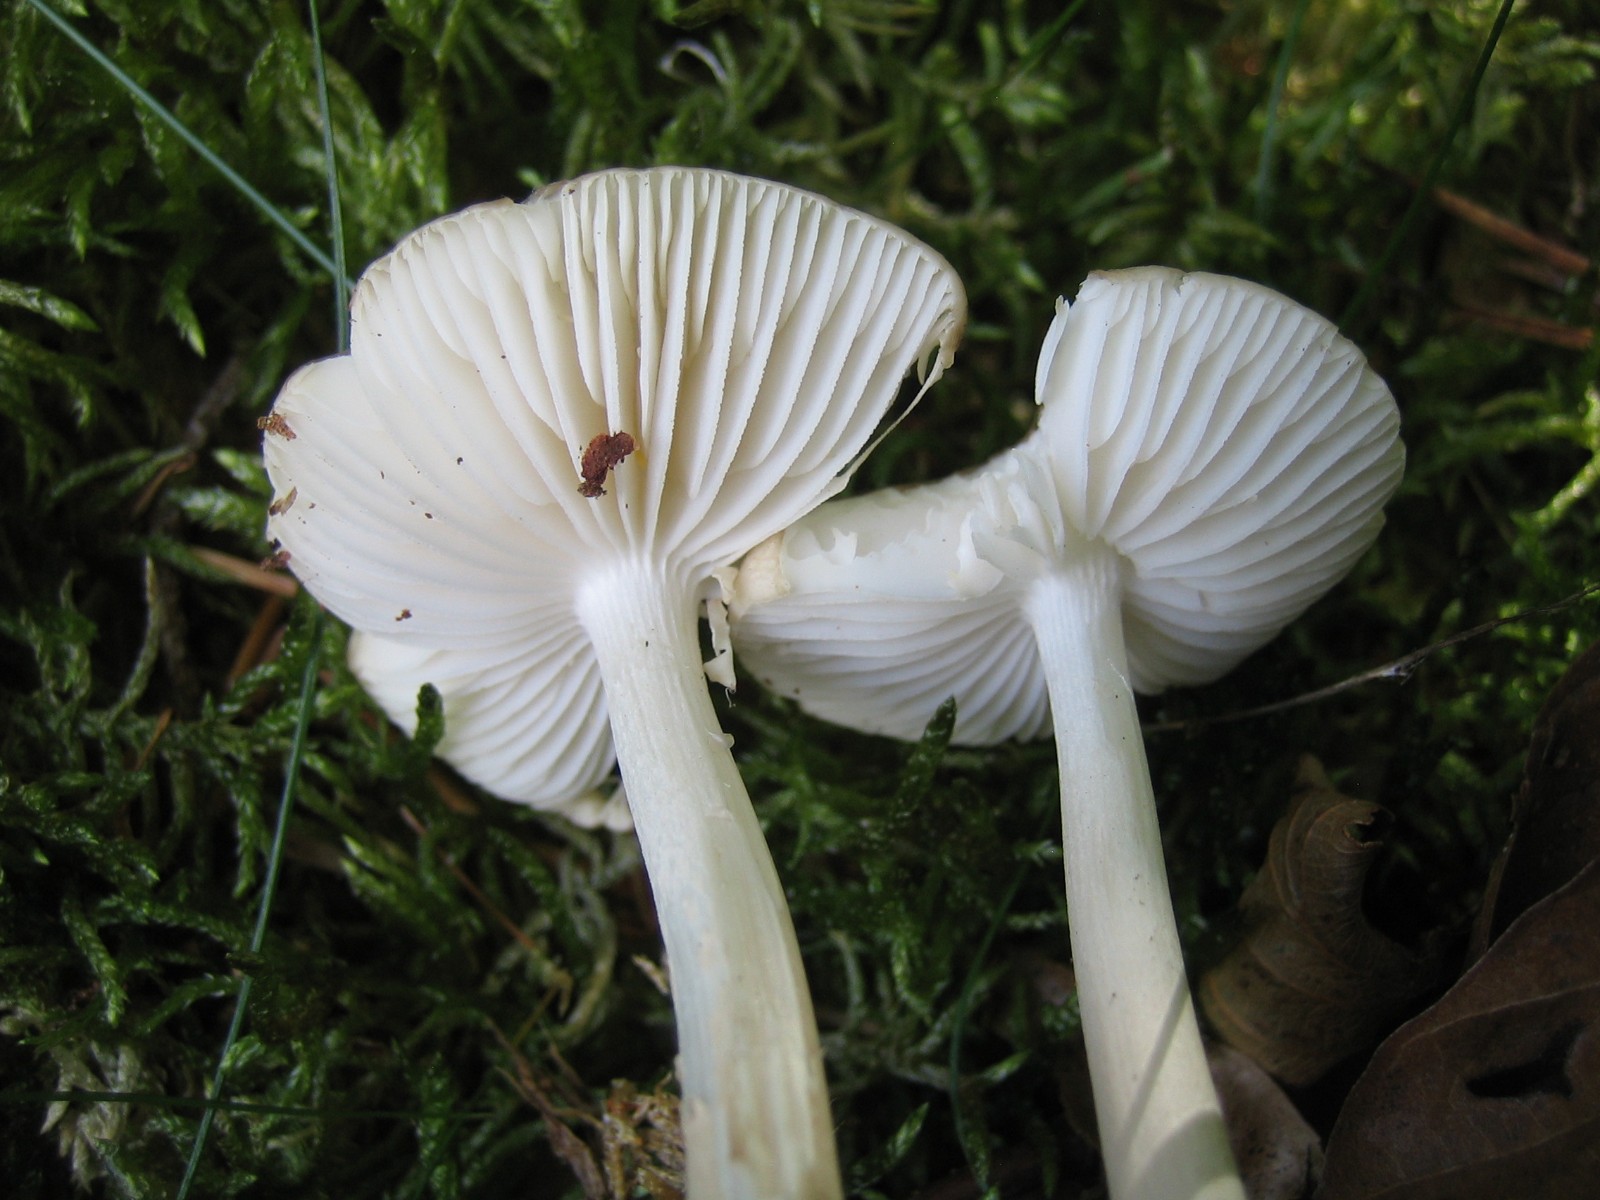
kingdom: Fungi
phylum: Basidiomycota
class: Agaricomycetes
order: Agaricales
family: Physalacriaceae
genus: Hymenopellis
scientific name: Hymenopellis radicata
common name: almindelig pælerodshat
